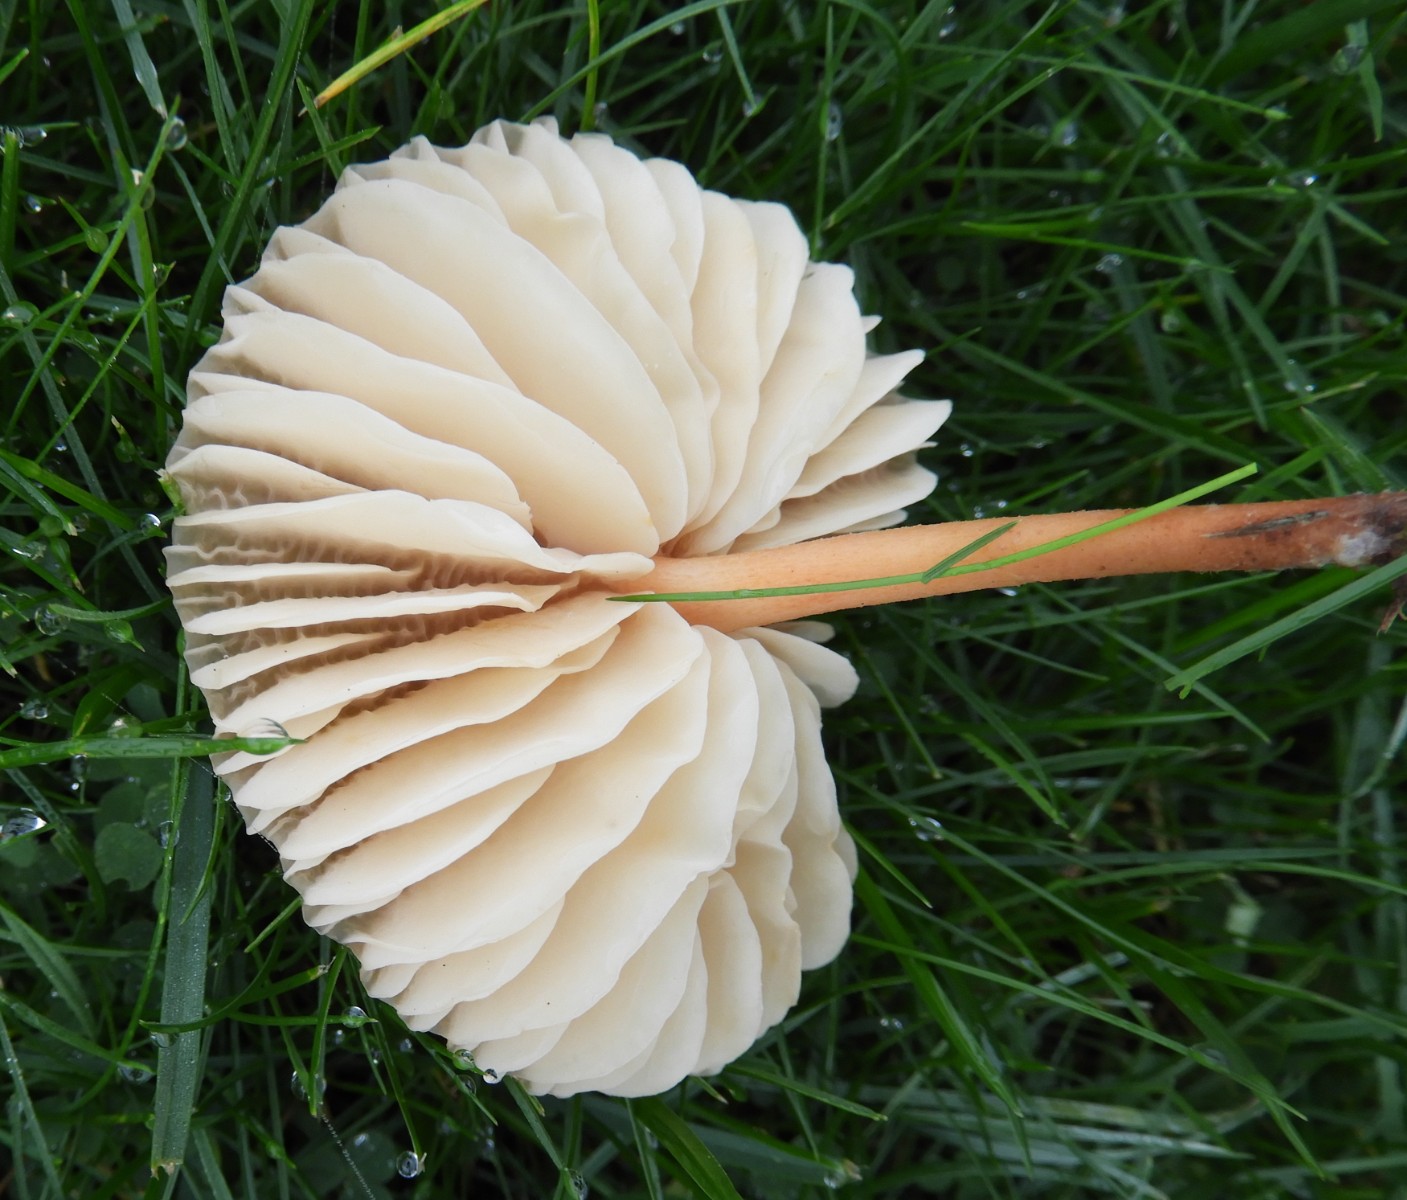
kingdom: Fungi
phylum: Basidiomycota
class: Agaricomycetes
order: Agaricales
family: Marasmiaceae
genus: Marasmius
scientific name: Marasmius oreades
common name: elledans-bruskhat
